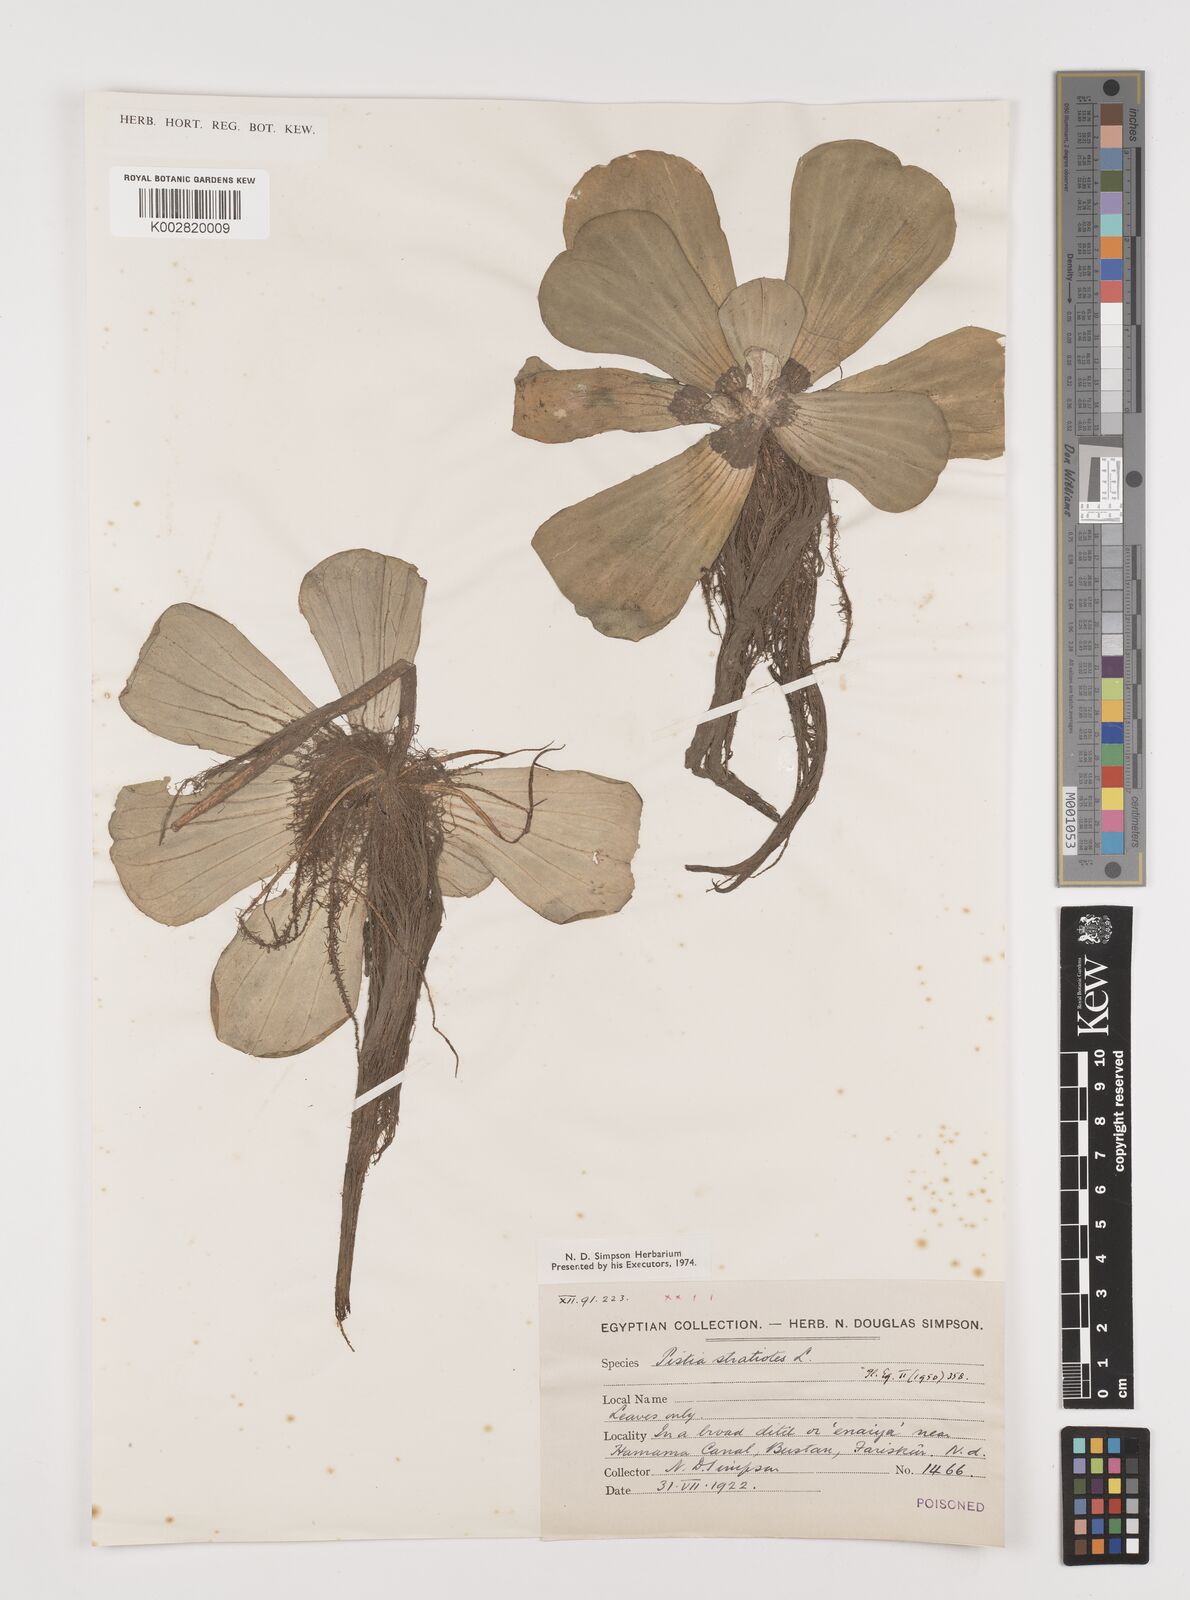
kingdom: Plantae
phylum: Tracheophyta
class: Liliopsida
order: Alismatales
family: Araceae
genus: Pistia
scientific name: Pistia stratiotes
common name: Water lettuce
